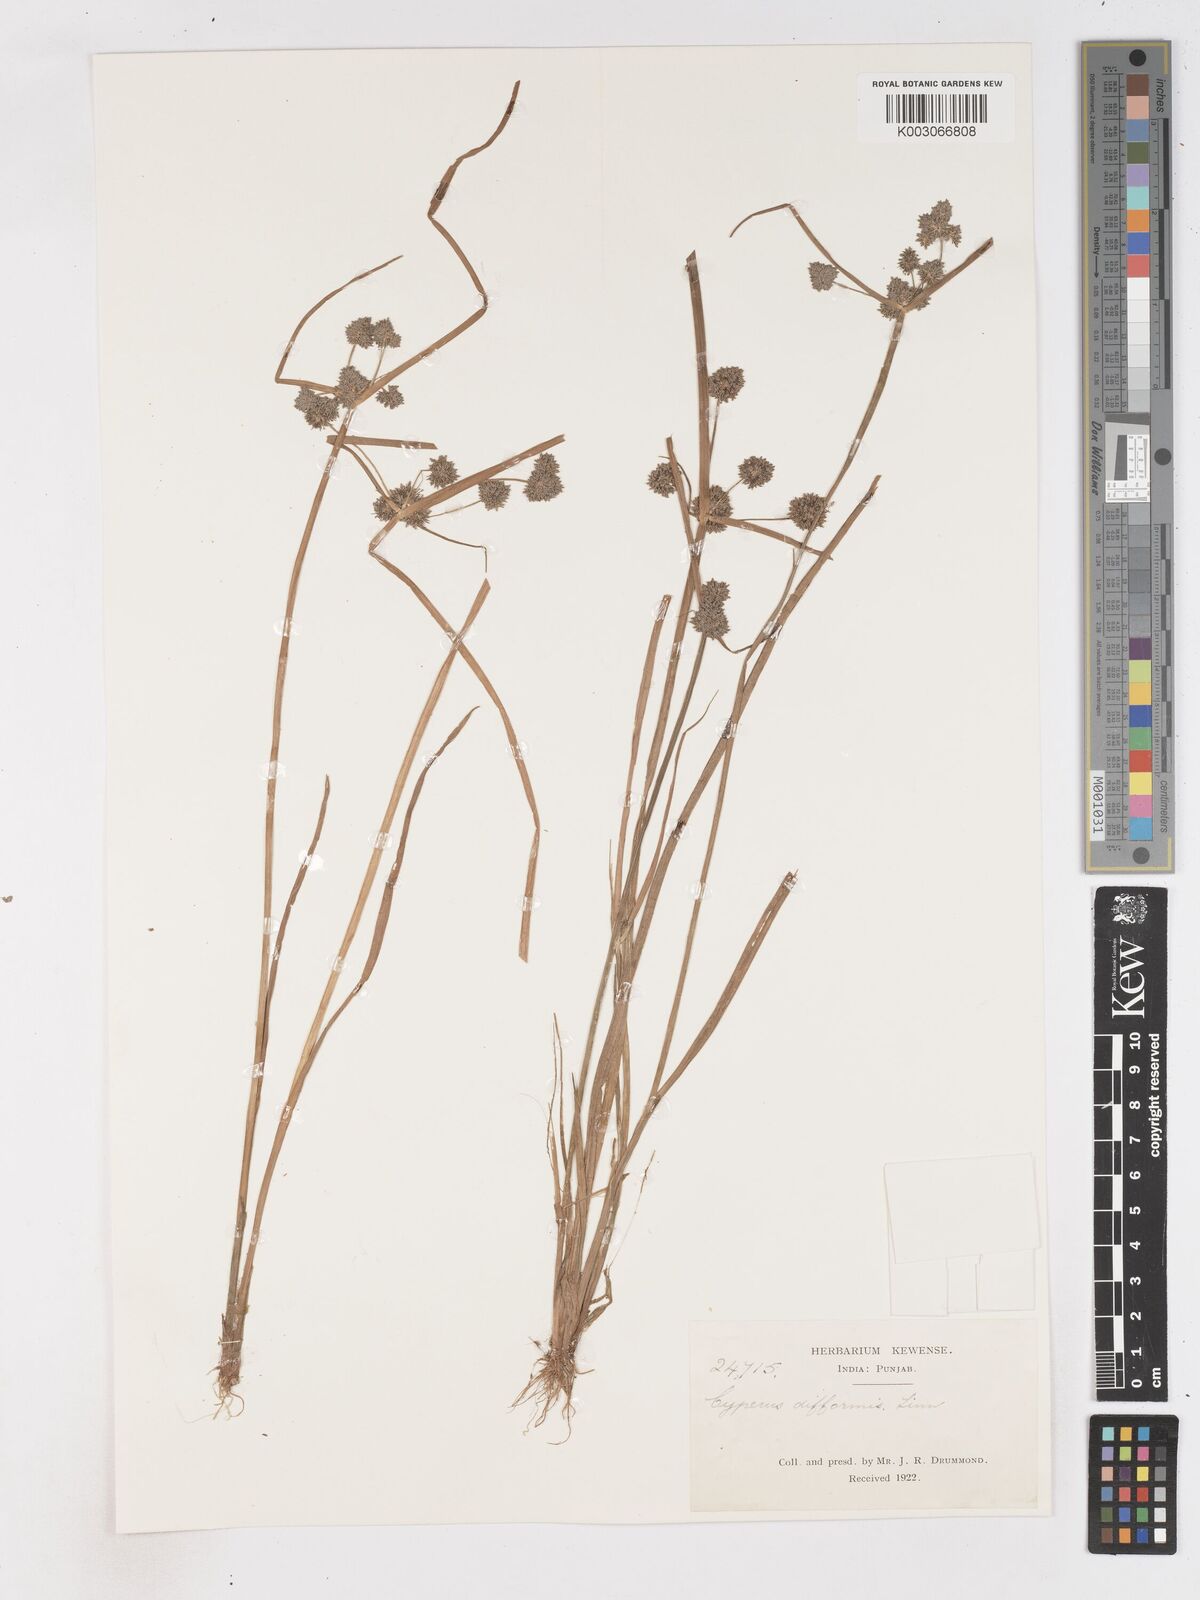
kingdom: Plantae
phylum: Tracheophyta
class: Liliopsida
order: Poales
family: Cyperaceae
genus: Cyperus
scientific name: Cyperus difformis
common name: Variable flatsedge
